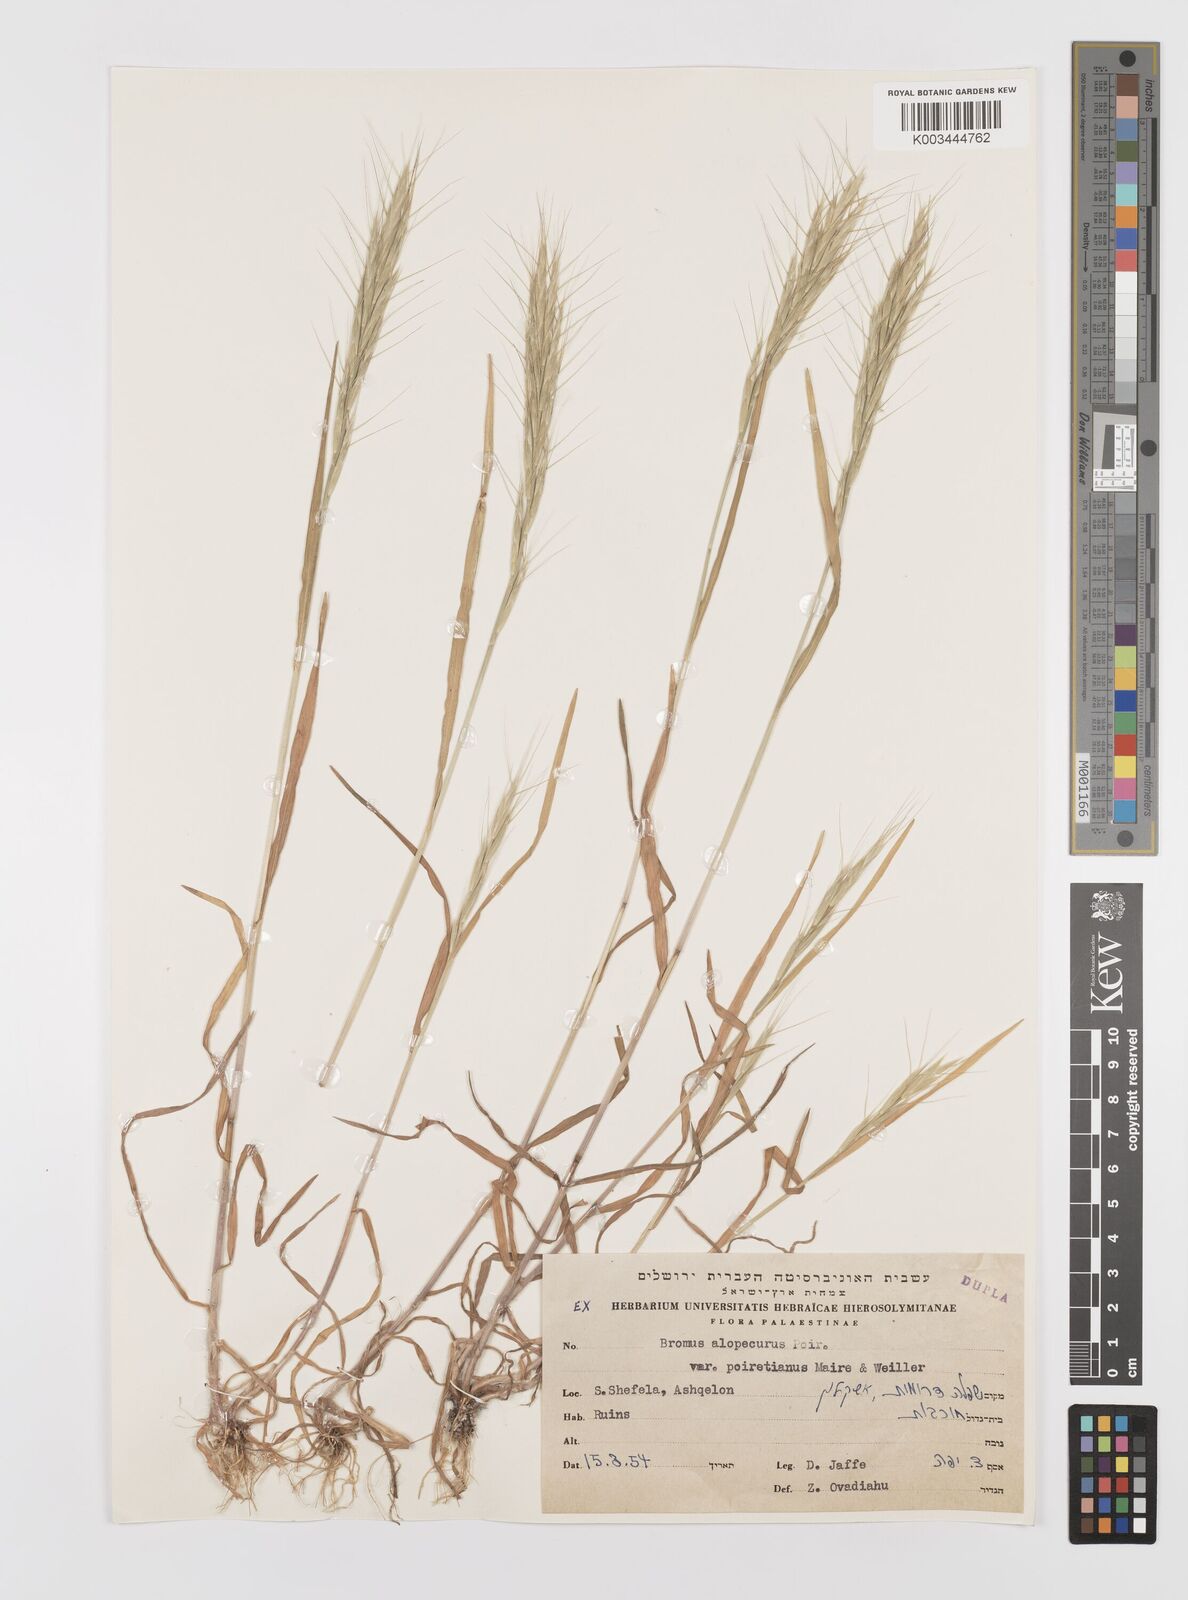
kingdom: Plantae
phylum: Tracheophyta
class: Liliopsida
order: Poales
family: Poaceae
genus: Bromus
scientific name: Bromus alopecuros
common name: Weedy brome
